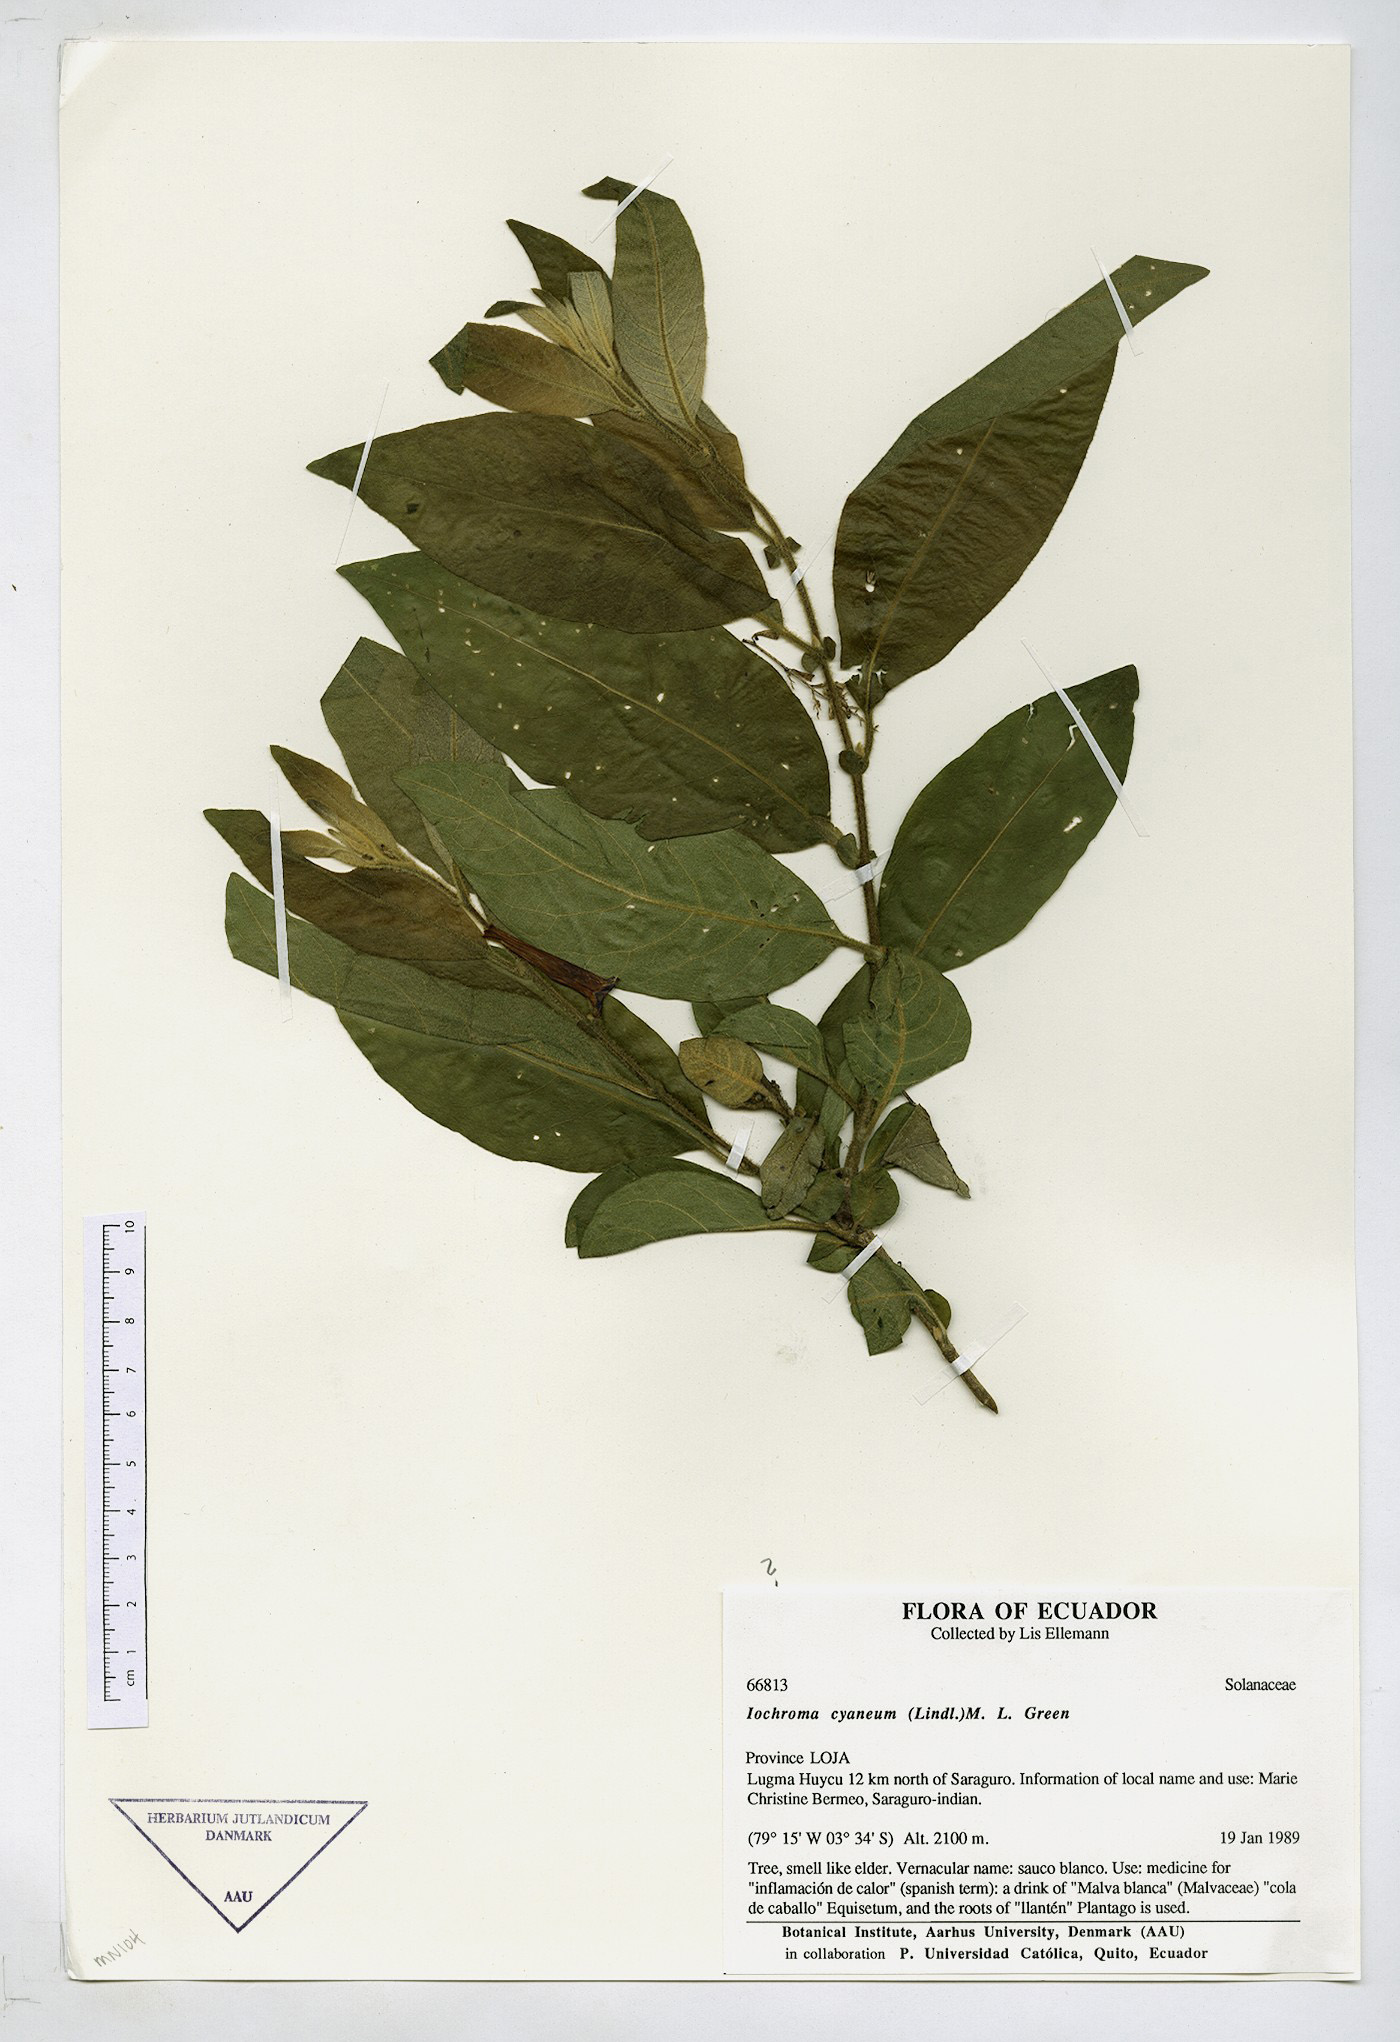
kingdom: Plantae
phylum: Tracheophyta
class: Magnoliopsida
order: Solanales
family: Solanaceae
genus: Iochroma
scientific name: Iochroma cyaneum
